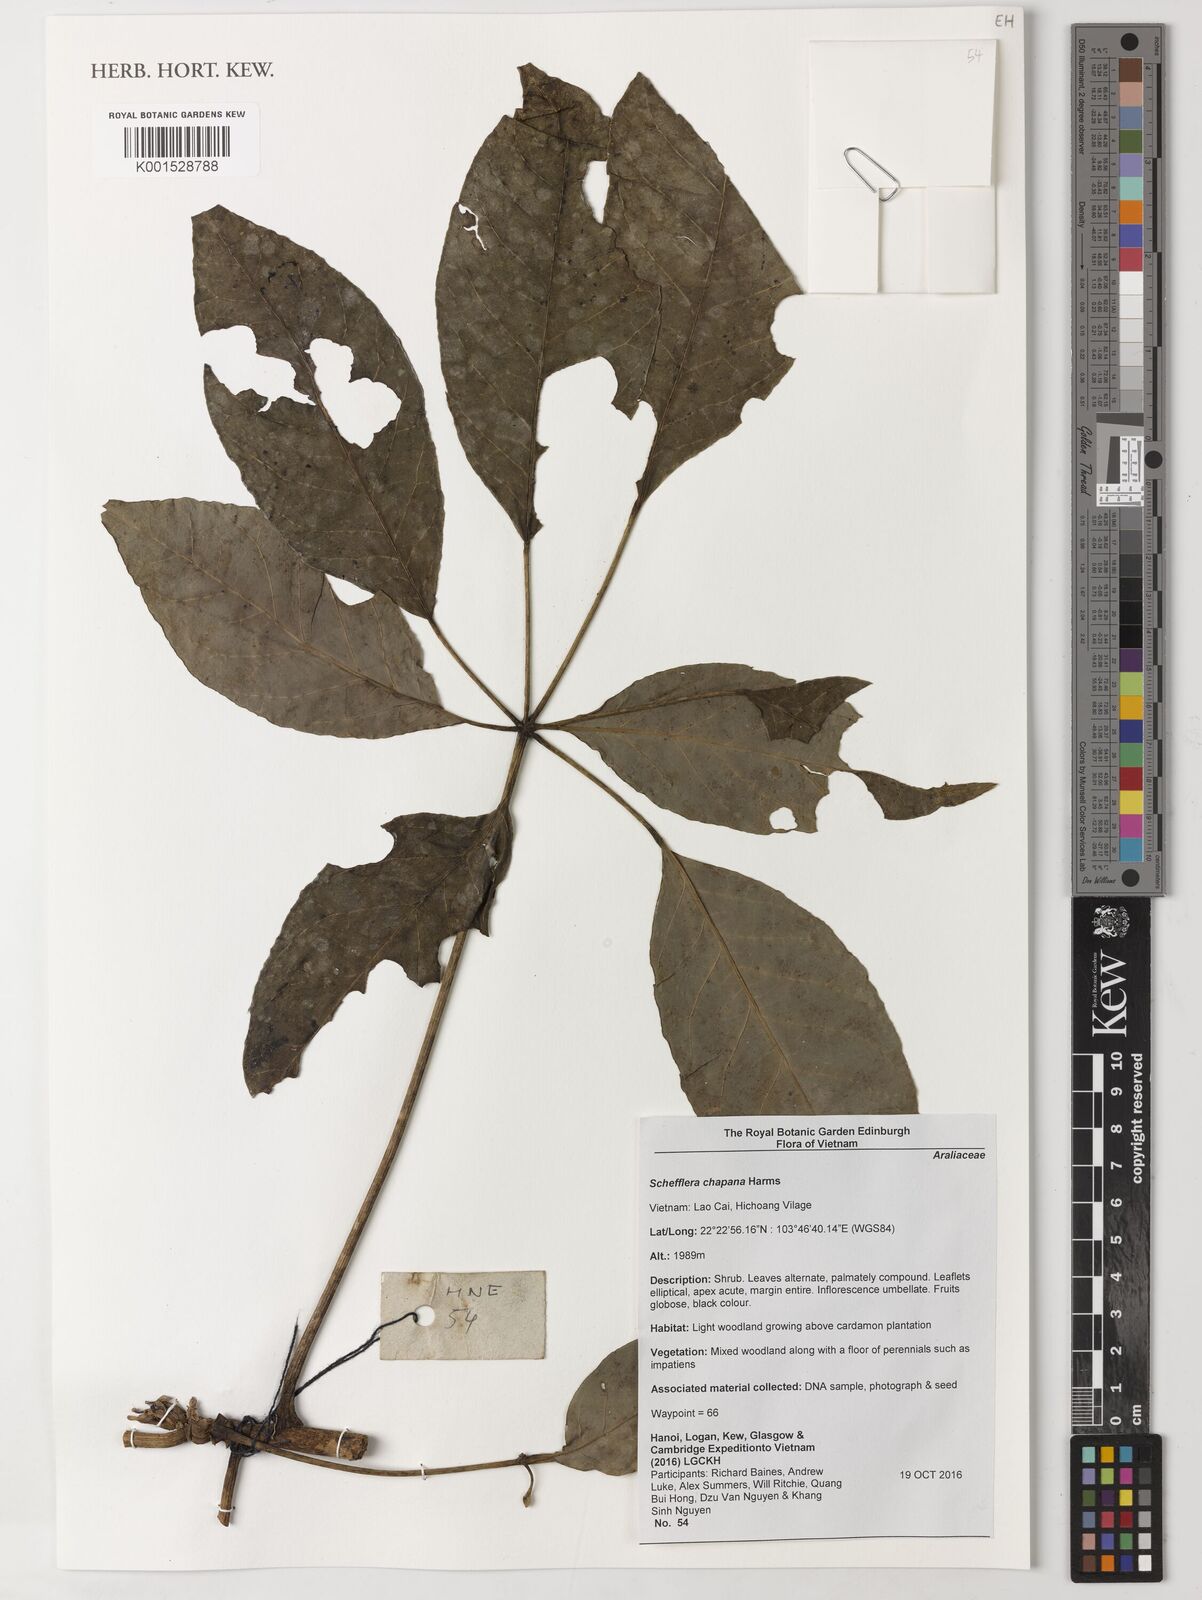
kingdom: Plantae
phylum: Tracheophyta
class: Magnoliopsida
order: Apiales
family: Araliaceae
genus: Heptapleurum
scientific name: Heptapleurum chapanum
